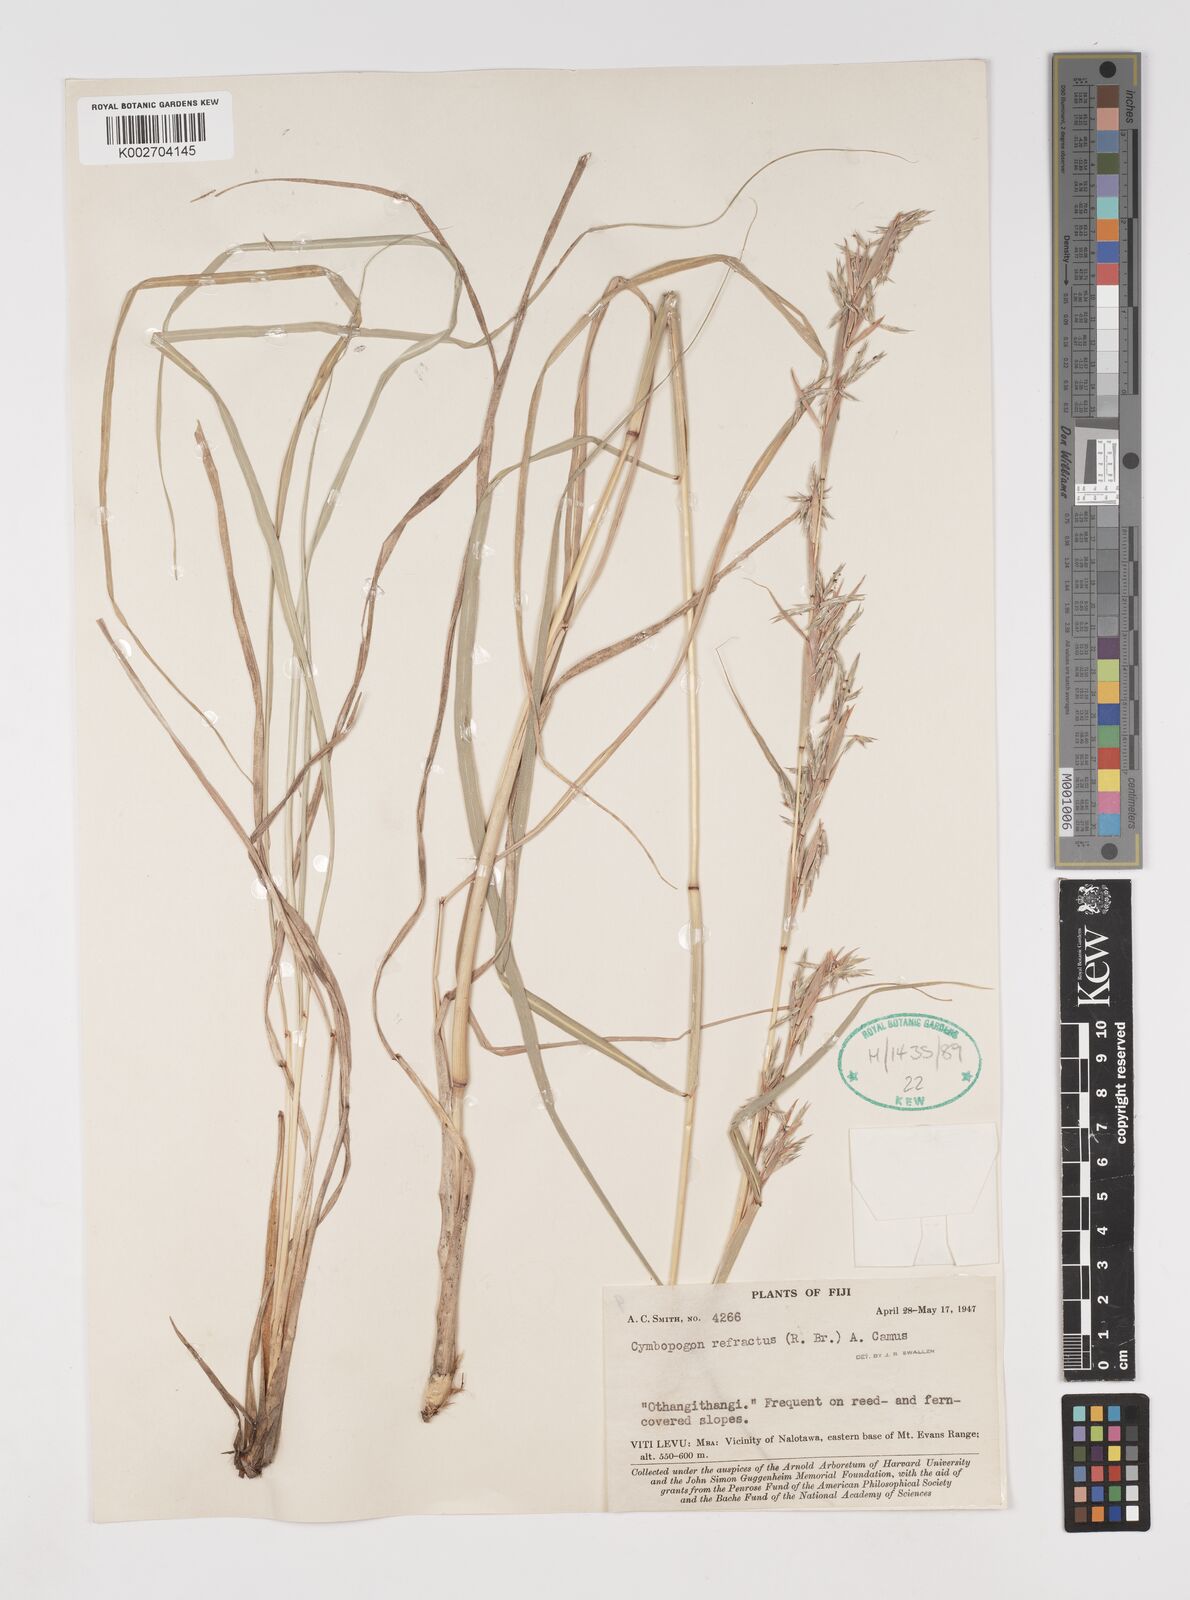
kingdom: Plantae
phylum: Tracheophyta
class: Liliopsida
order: Poales
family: Poaceae
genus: Cymbopogon
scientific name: Cymbopogon refractus
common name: Barbwire grass
